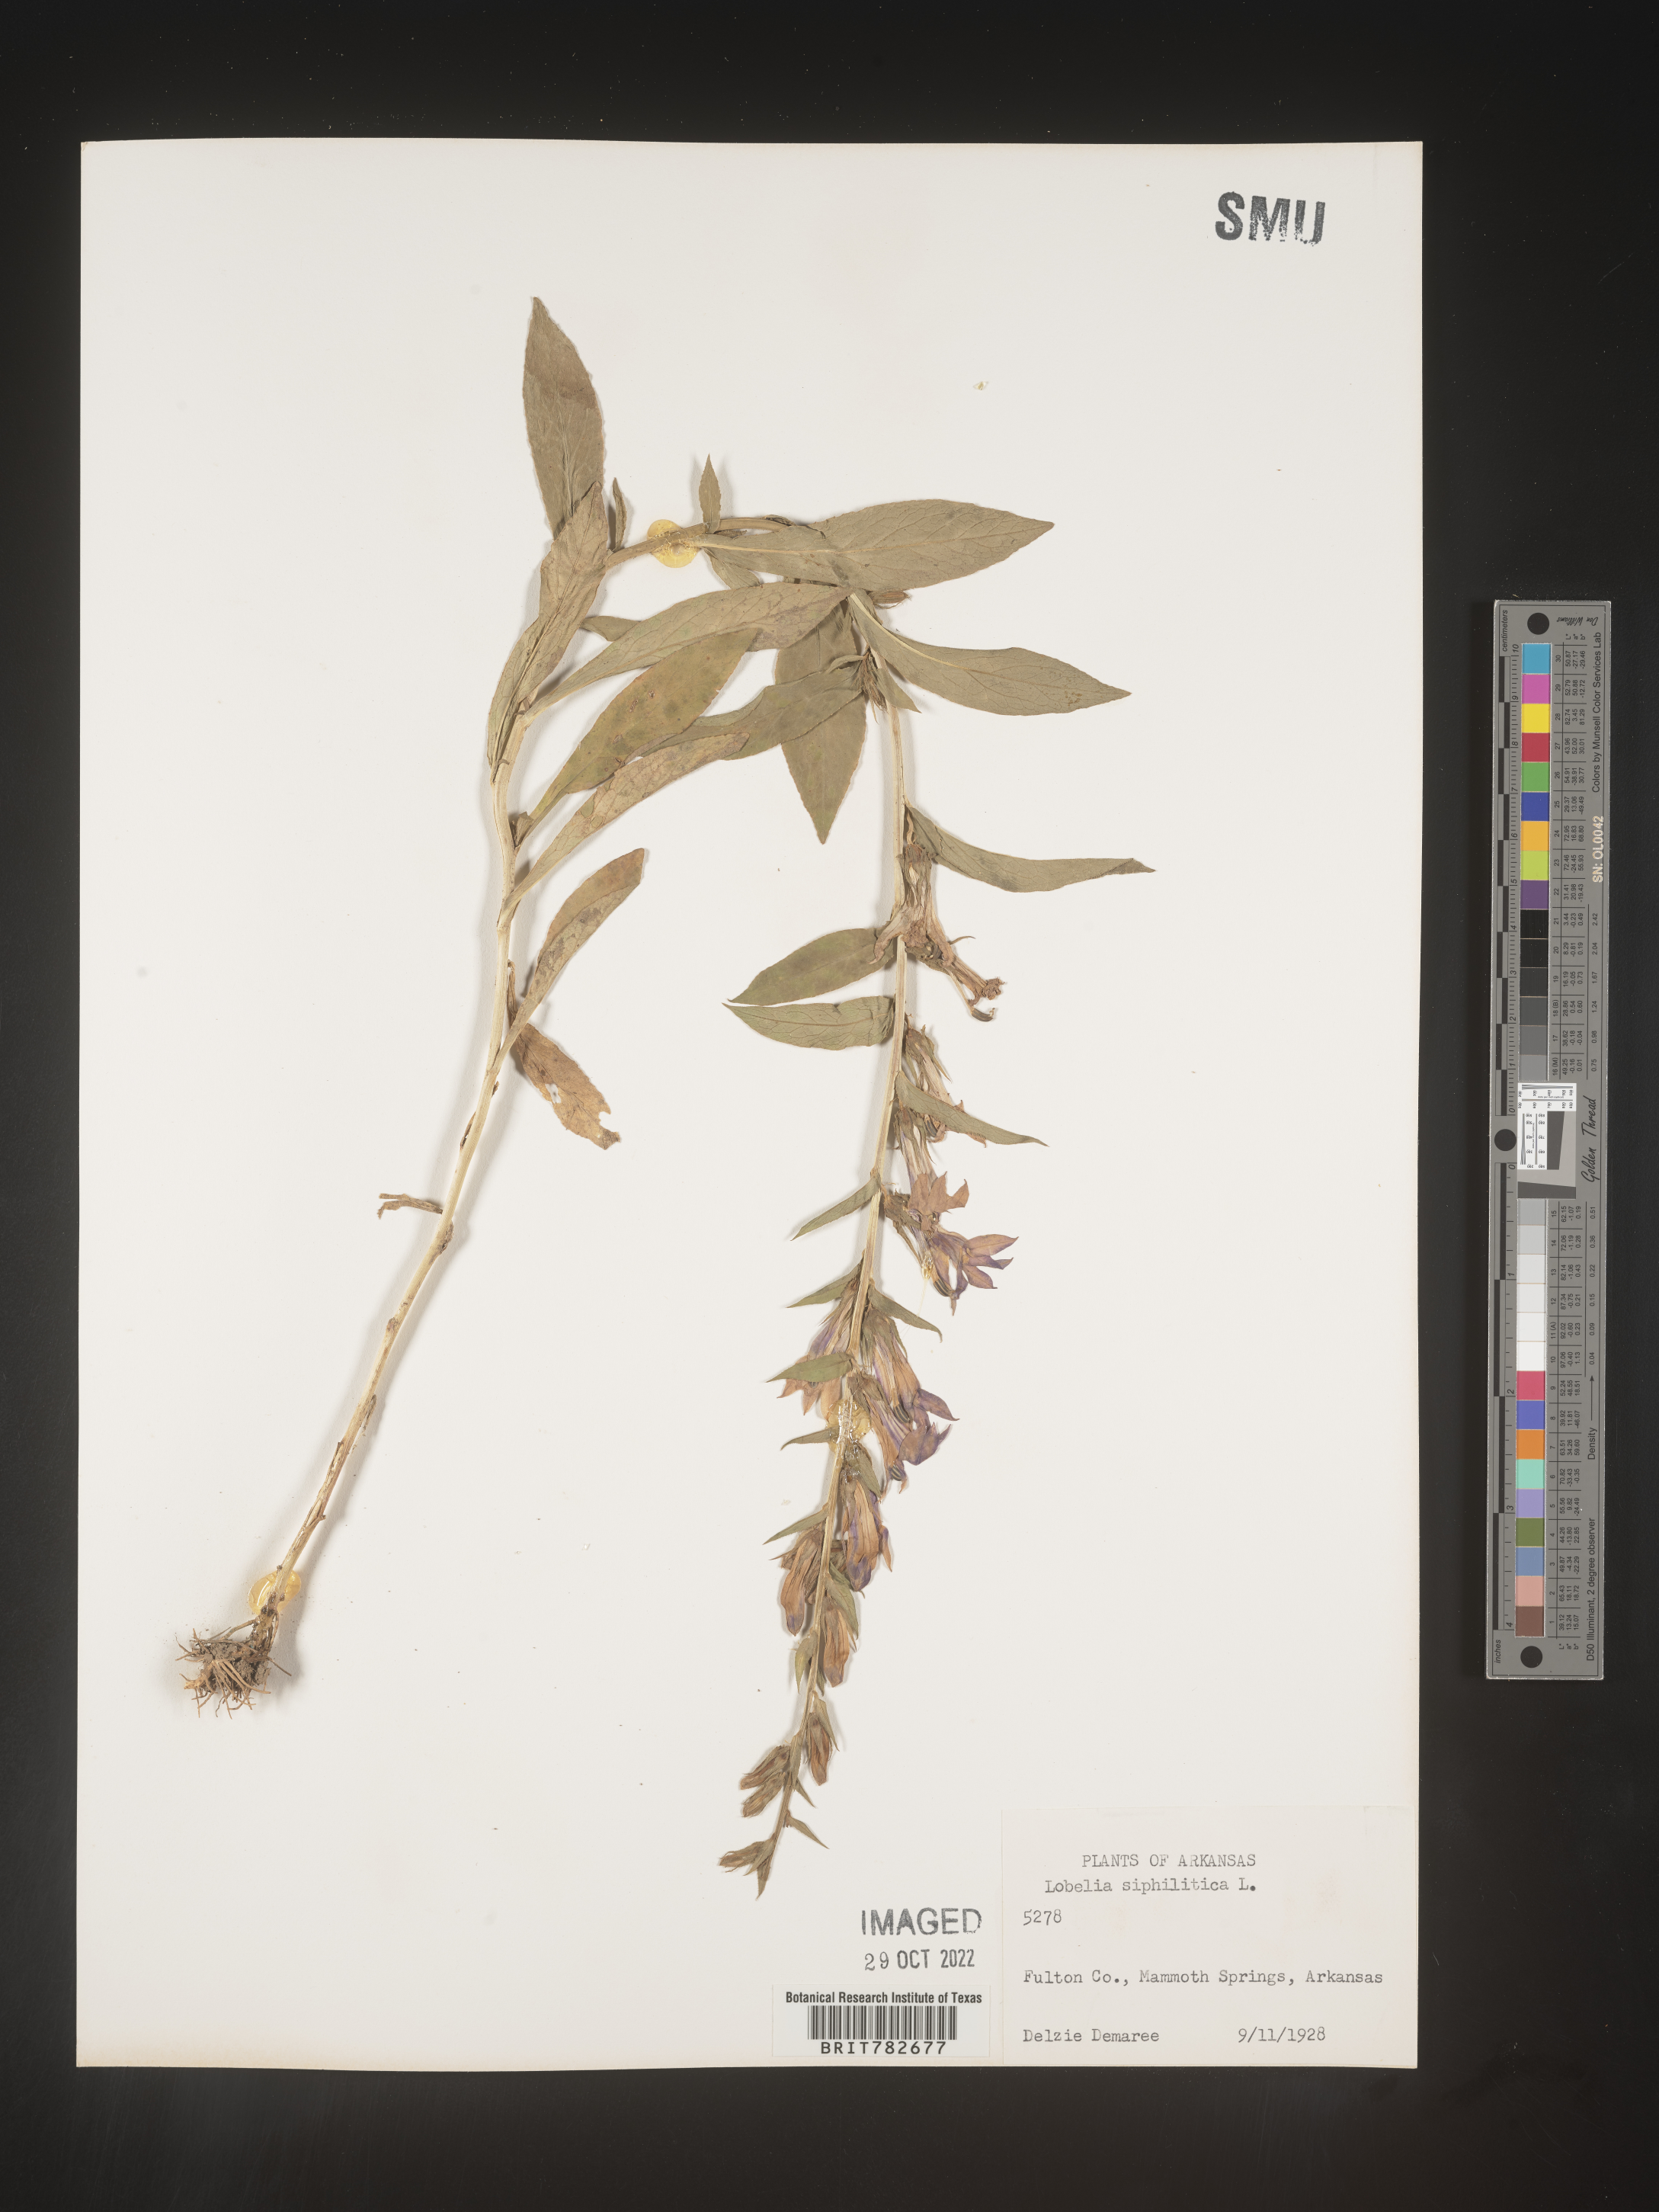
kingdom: Plantae
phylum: Tracheophyta
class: Magnoliopsida
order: Asterales
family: Campanulaceae
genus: Lobelia
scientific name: Lobelia siphilitica
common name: Great lobelia
